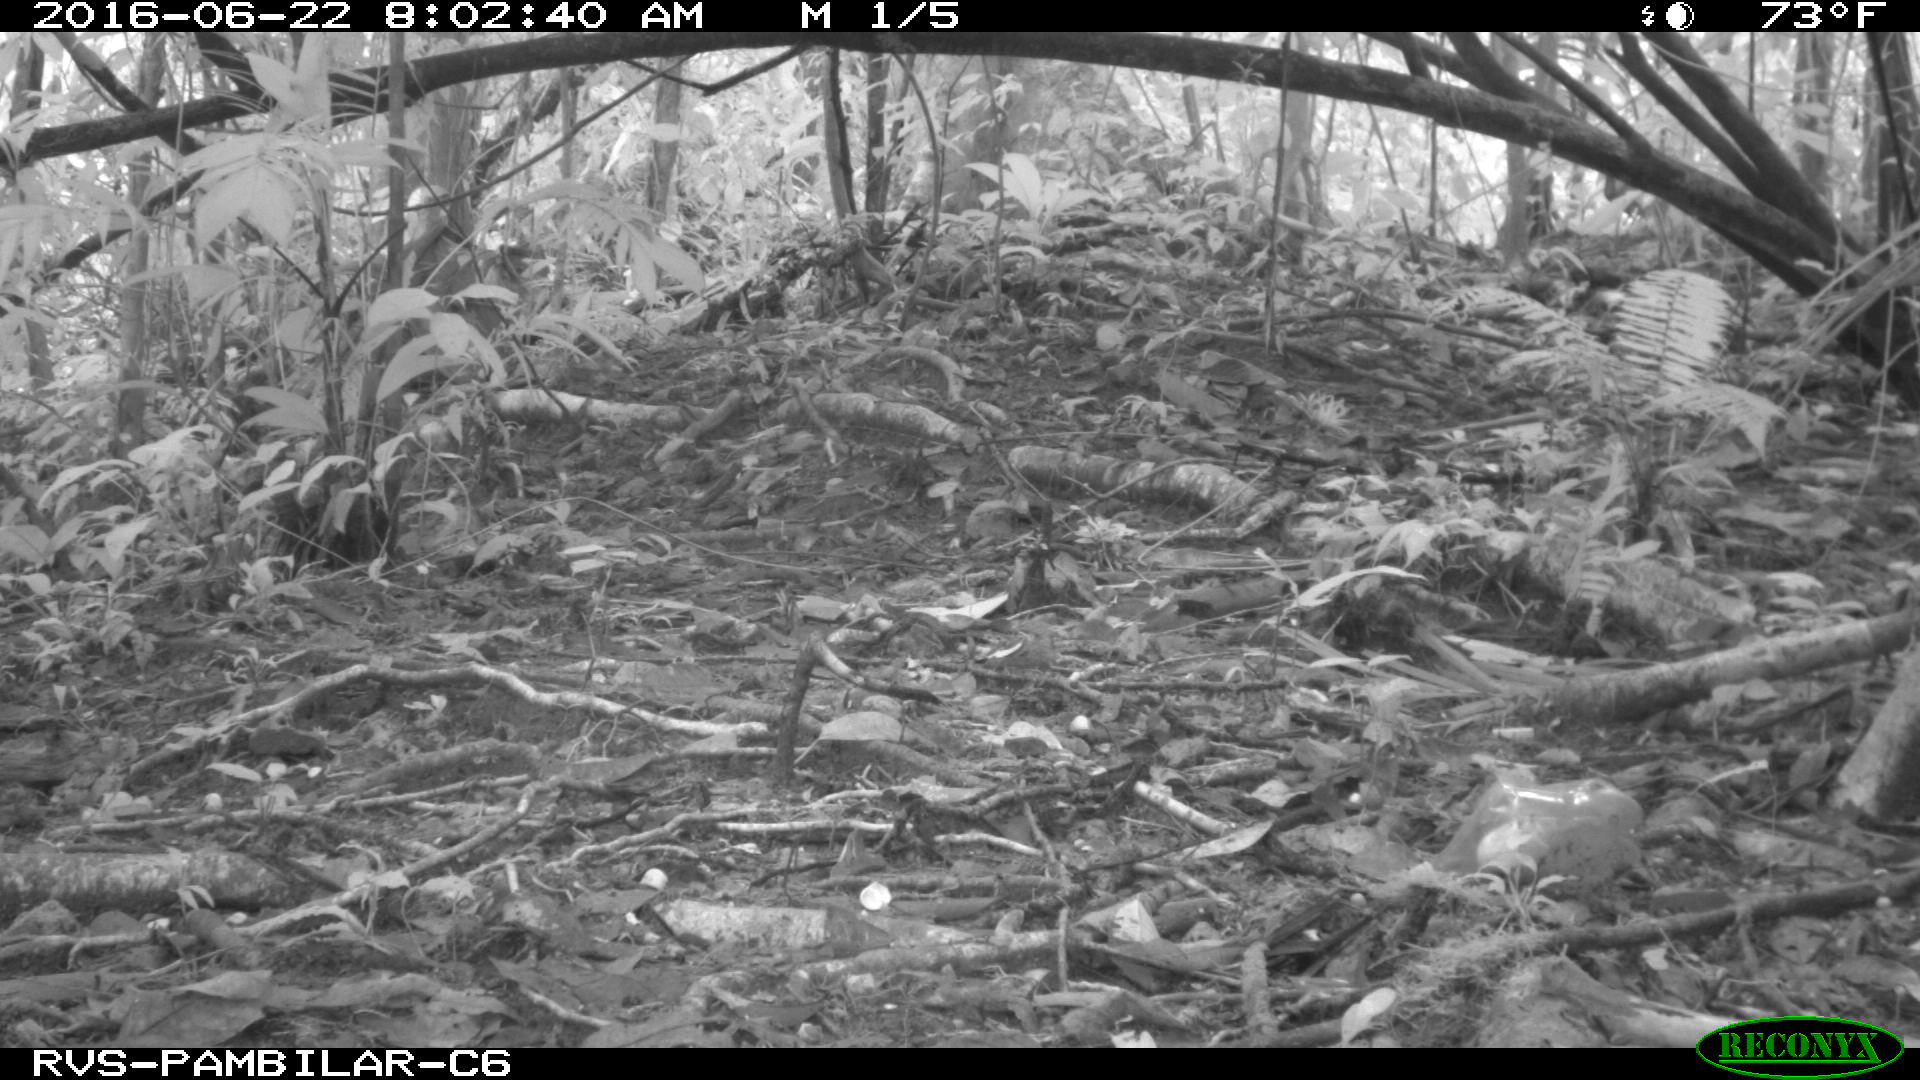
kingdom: Animalia
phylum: Chordata
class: Mammalia
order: Rodentia
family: Sciuridae
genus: Sciurus
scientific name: Sciurus granatensis
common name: Red-tailed squirrel
